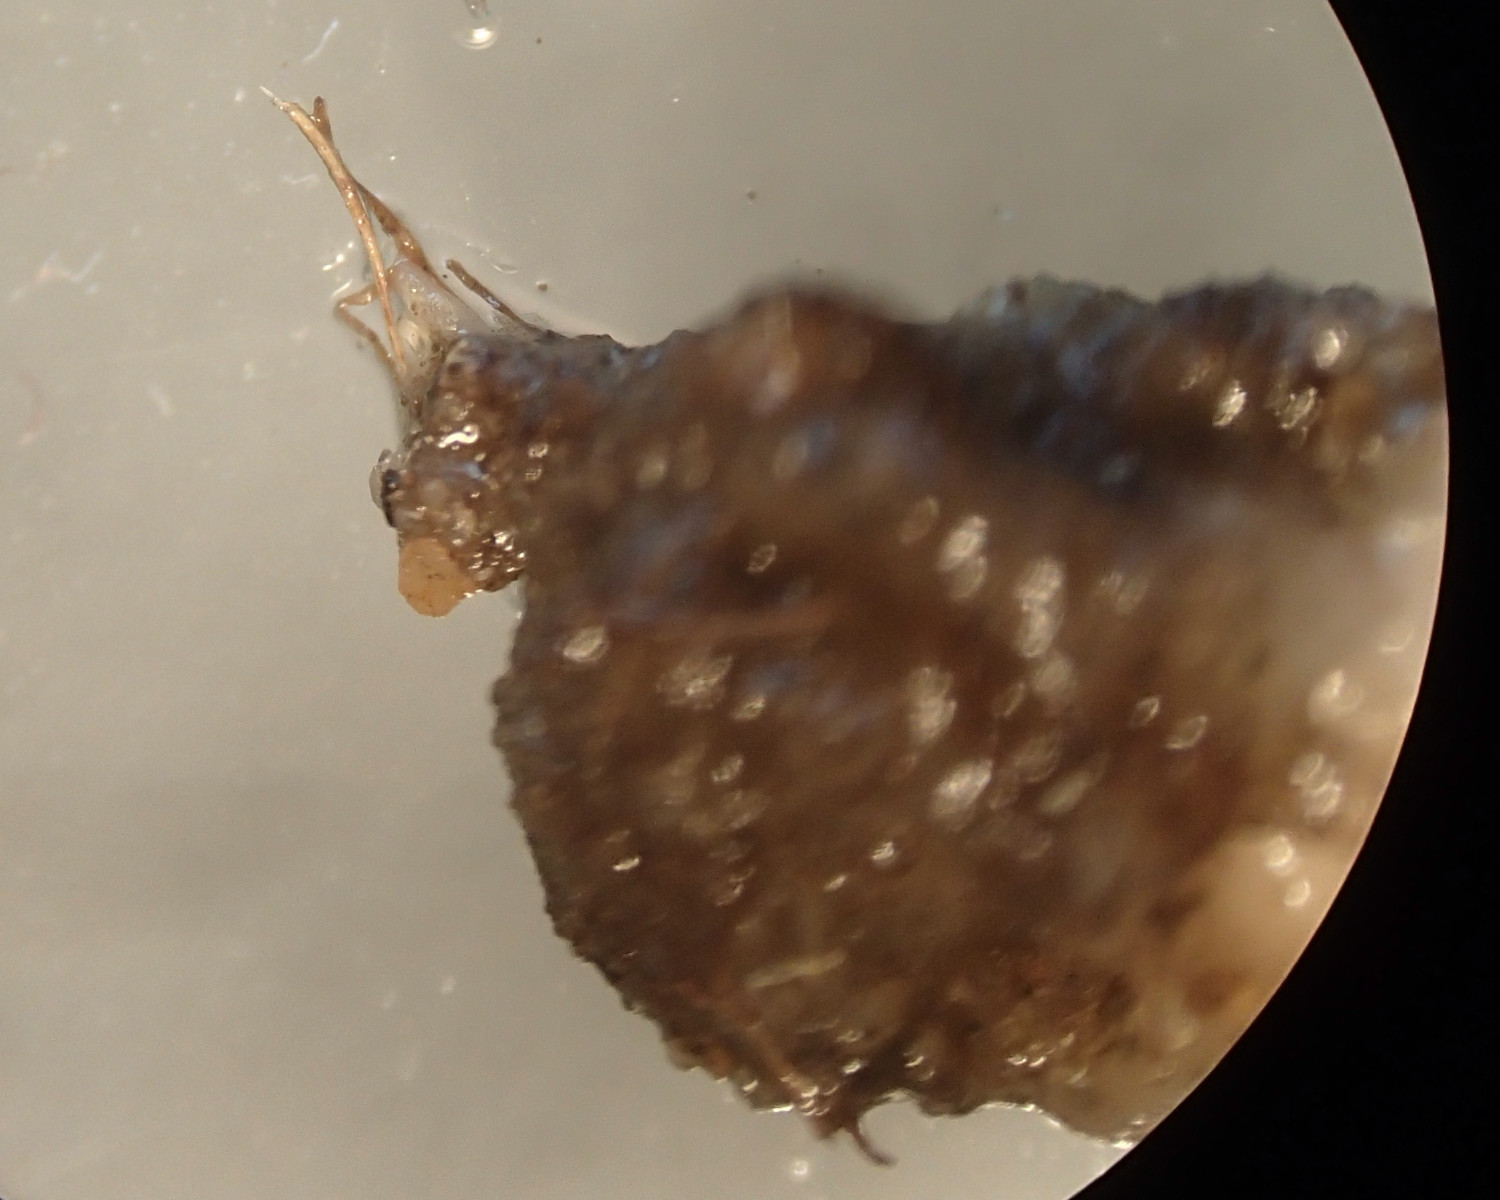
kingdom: Fungi
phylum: Basidiomycota
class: Agaricomycetes
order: Agaricales
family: Strophariaceae
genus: Agrocybe
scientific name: Agrocybe
